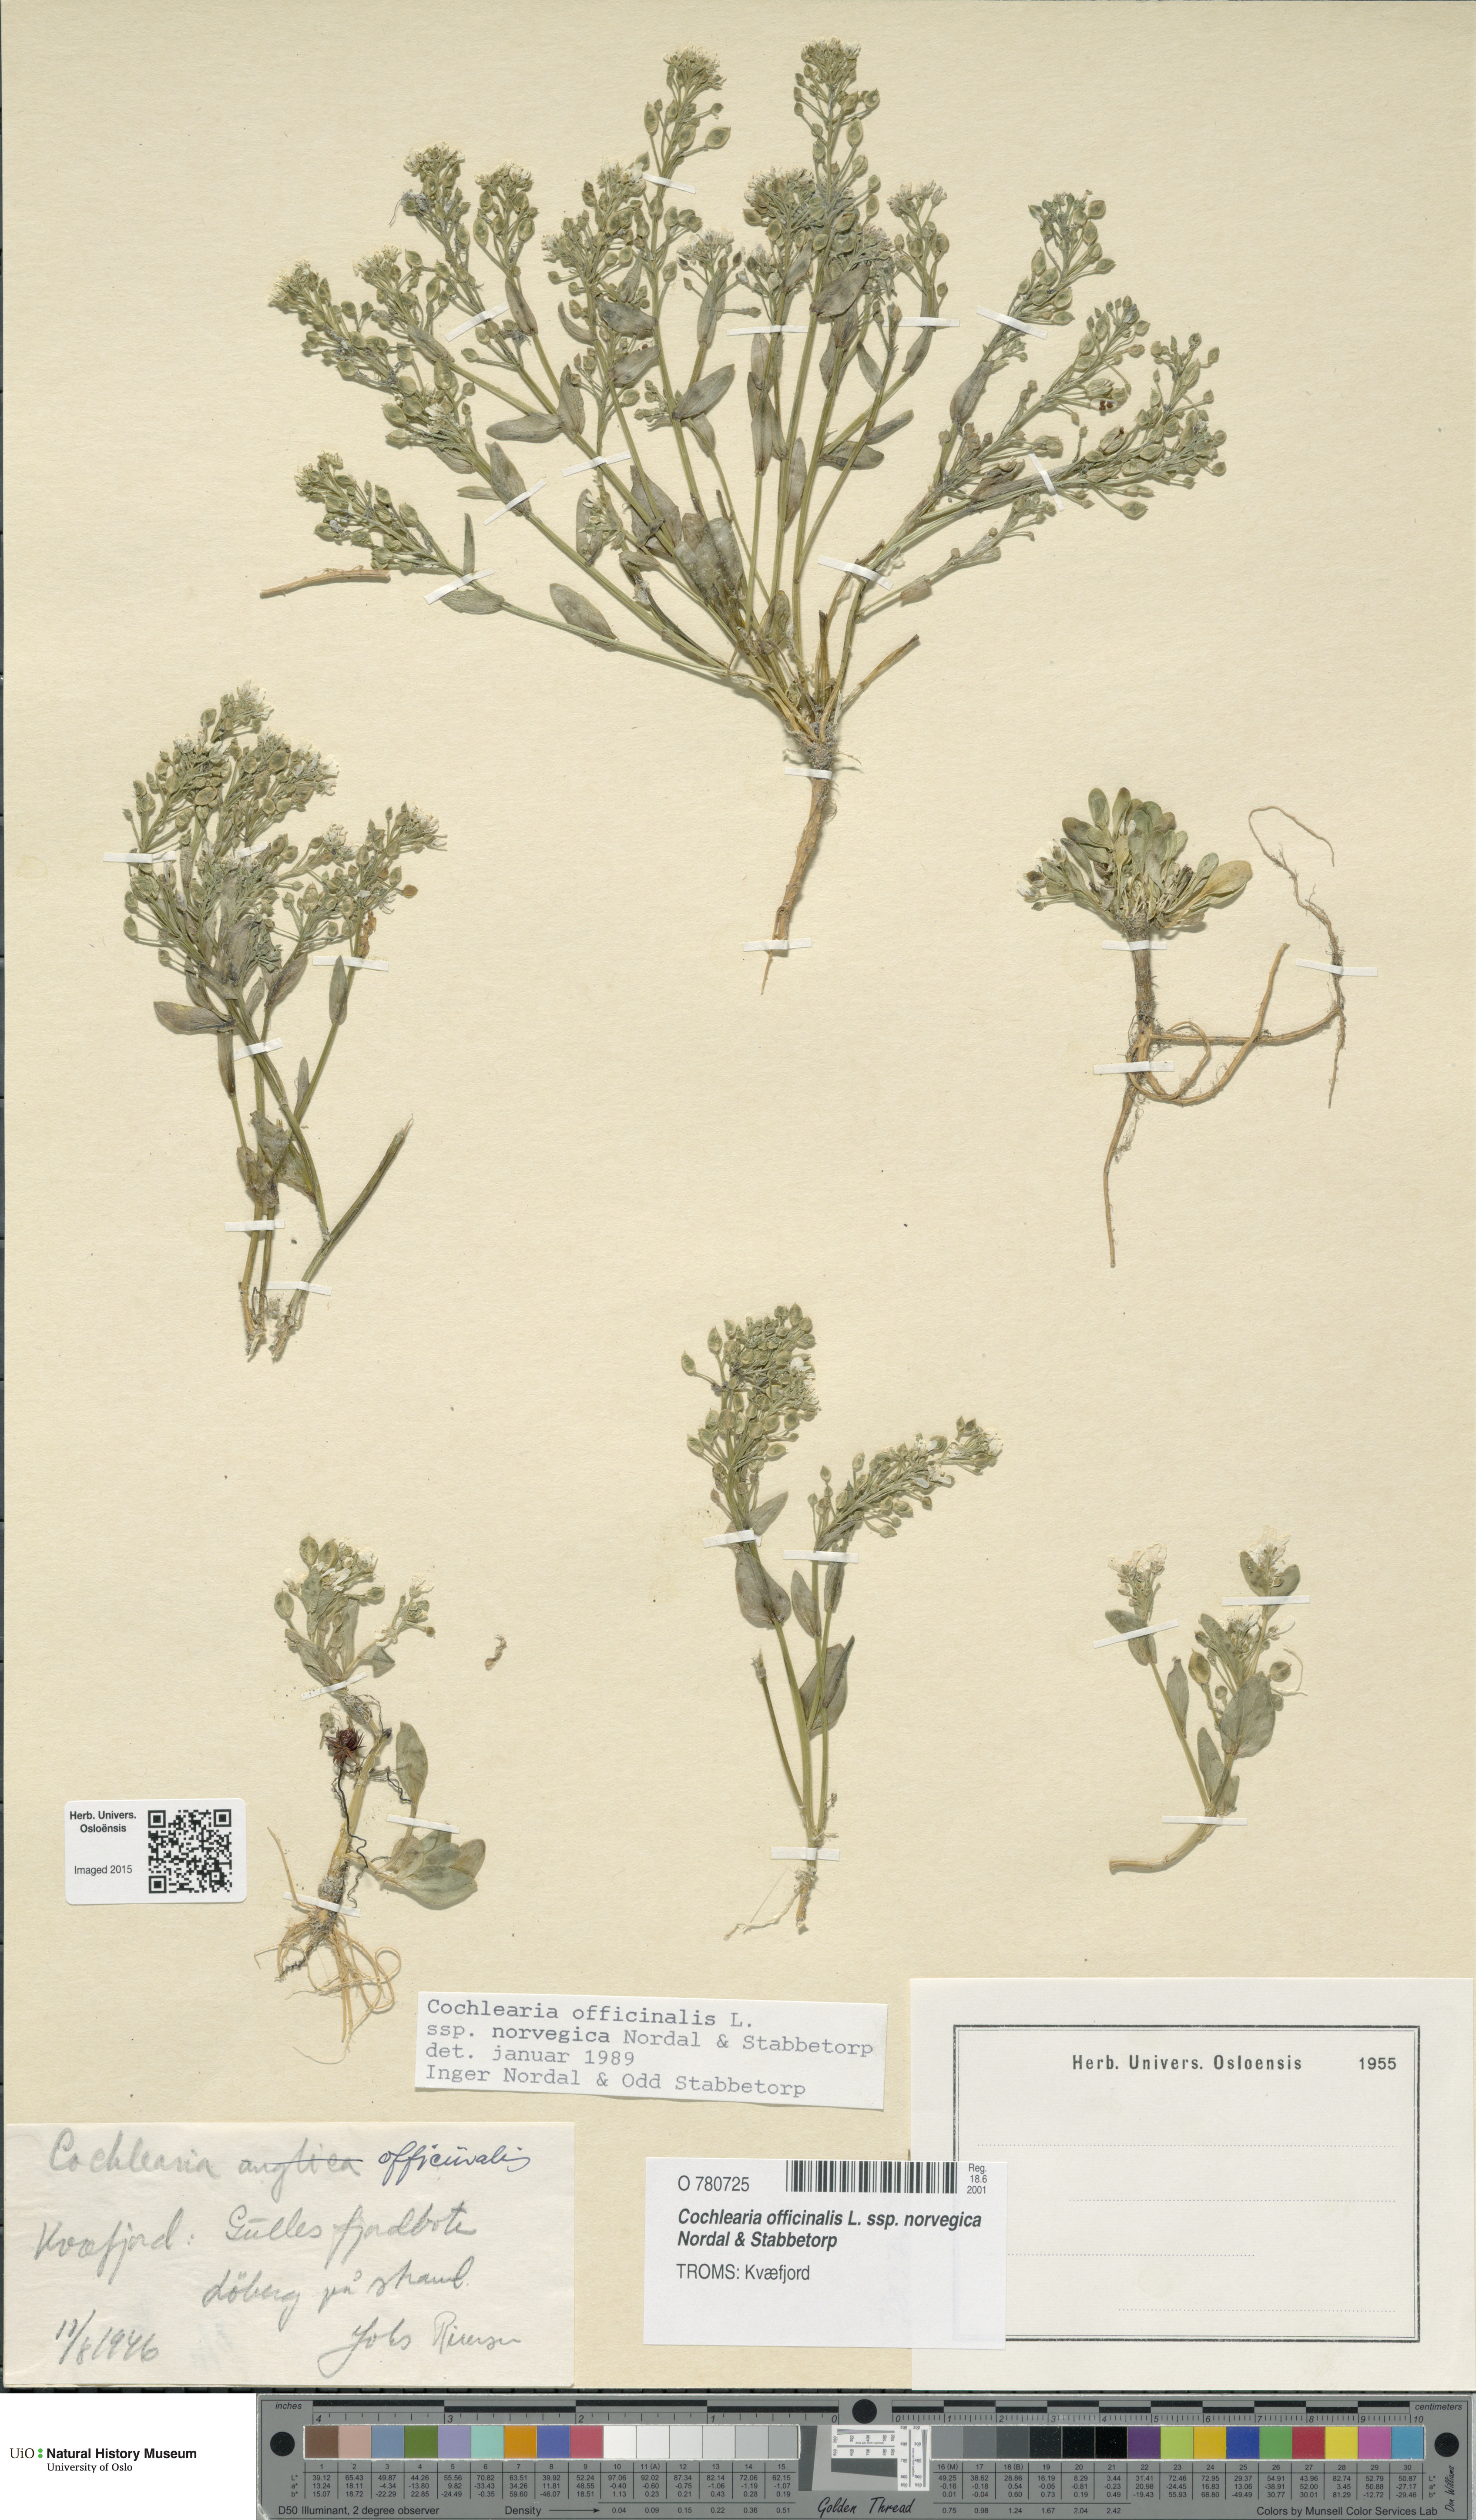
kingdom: Plantae
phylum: Tracheophyta
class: Magnoliopsida
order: Brassicales
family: Brassicaceae
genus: Cochlearia
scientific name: Cochlearia officinalis
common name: Scurvy-grass
